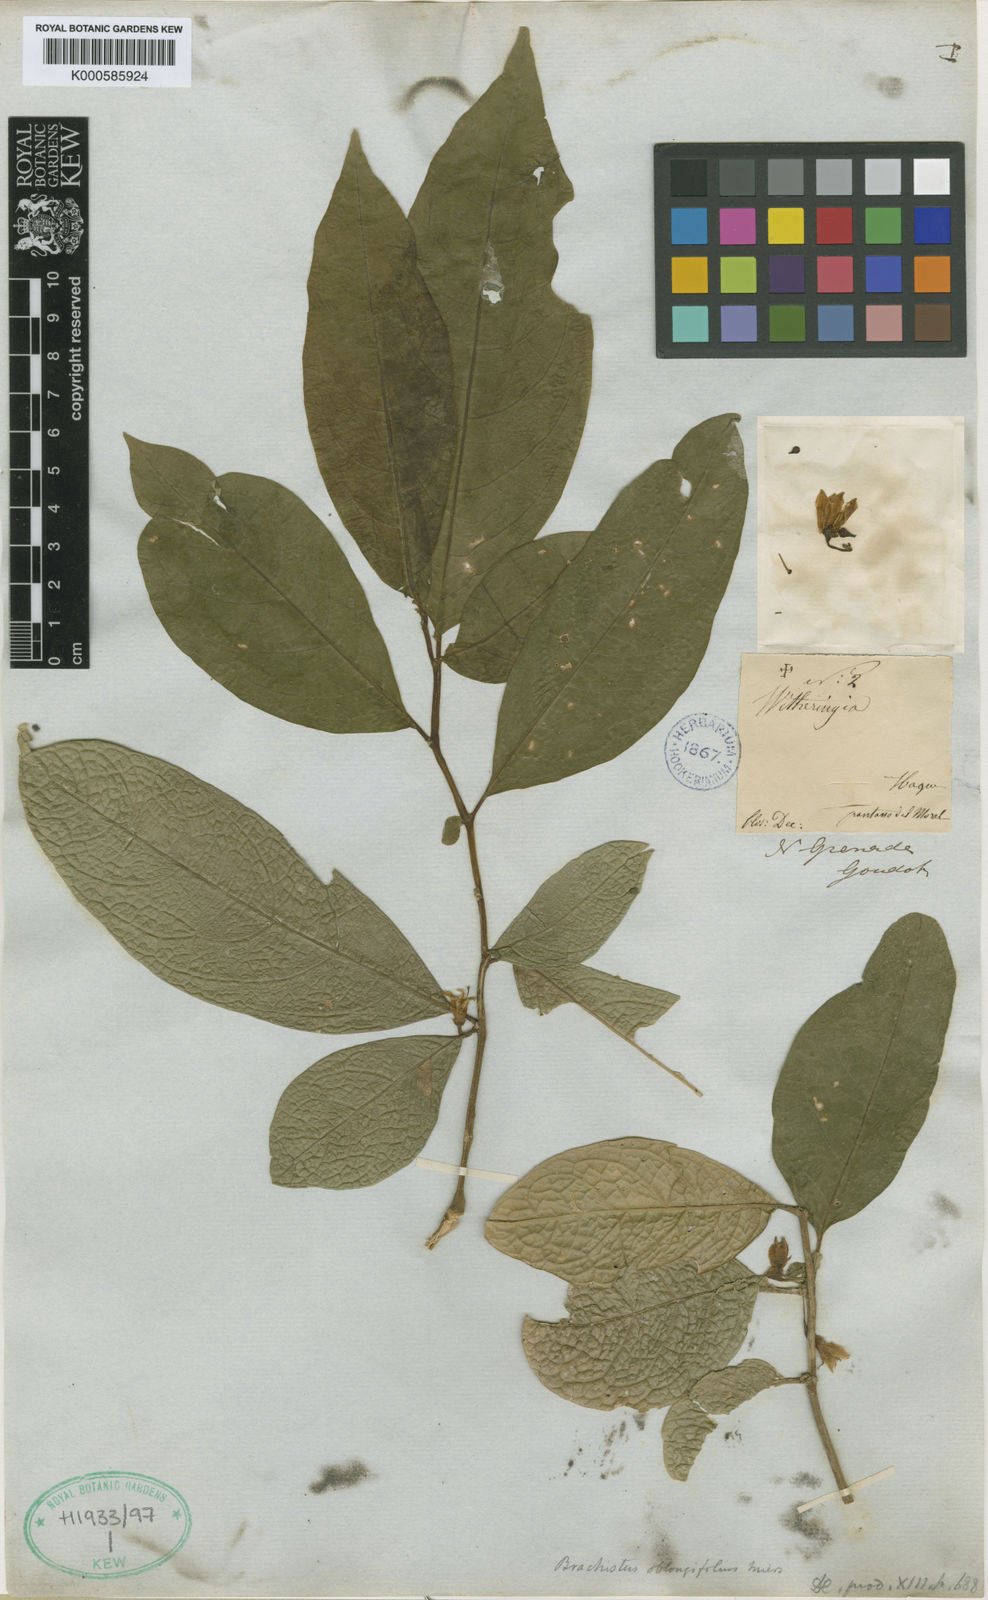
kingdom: Plantae
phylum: Tracheophyta
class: Magnoliopsida
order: Solanales
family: Solanaceae
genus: Iochroma
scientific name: Iochroma arborescens
